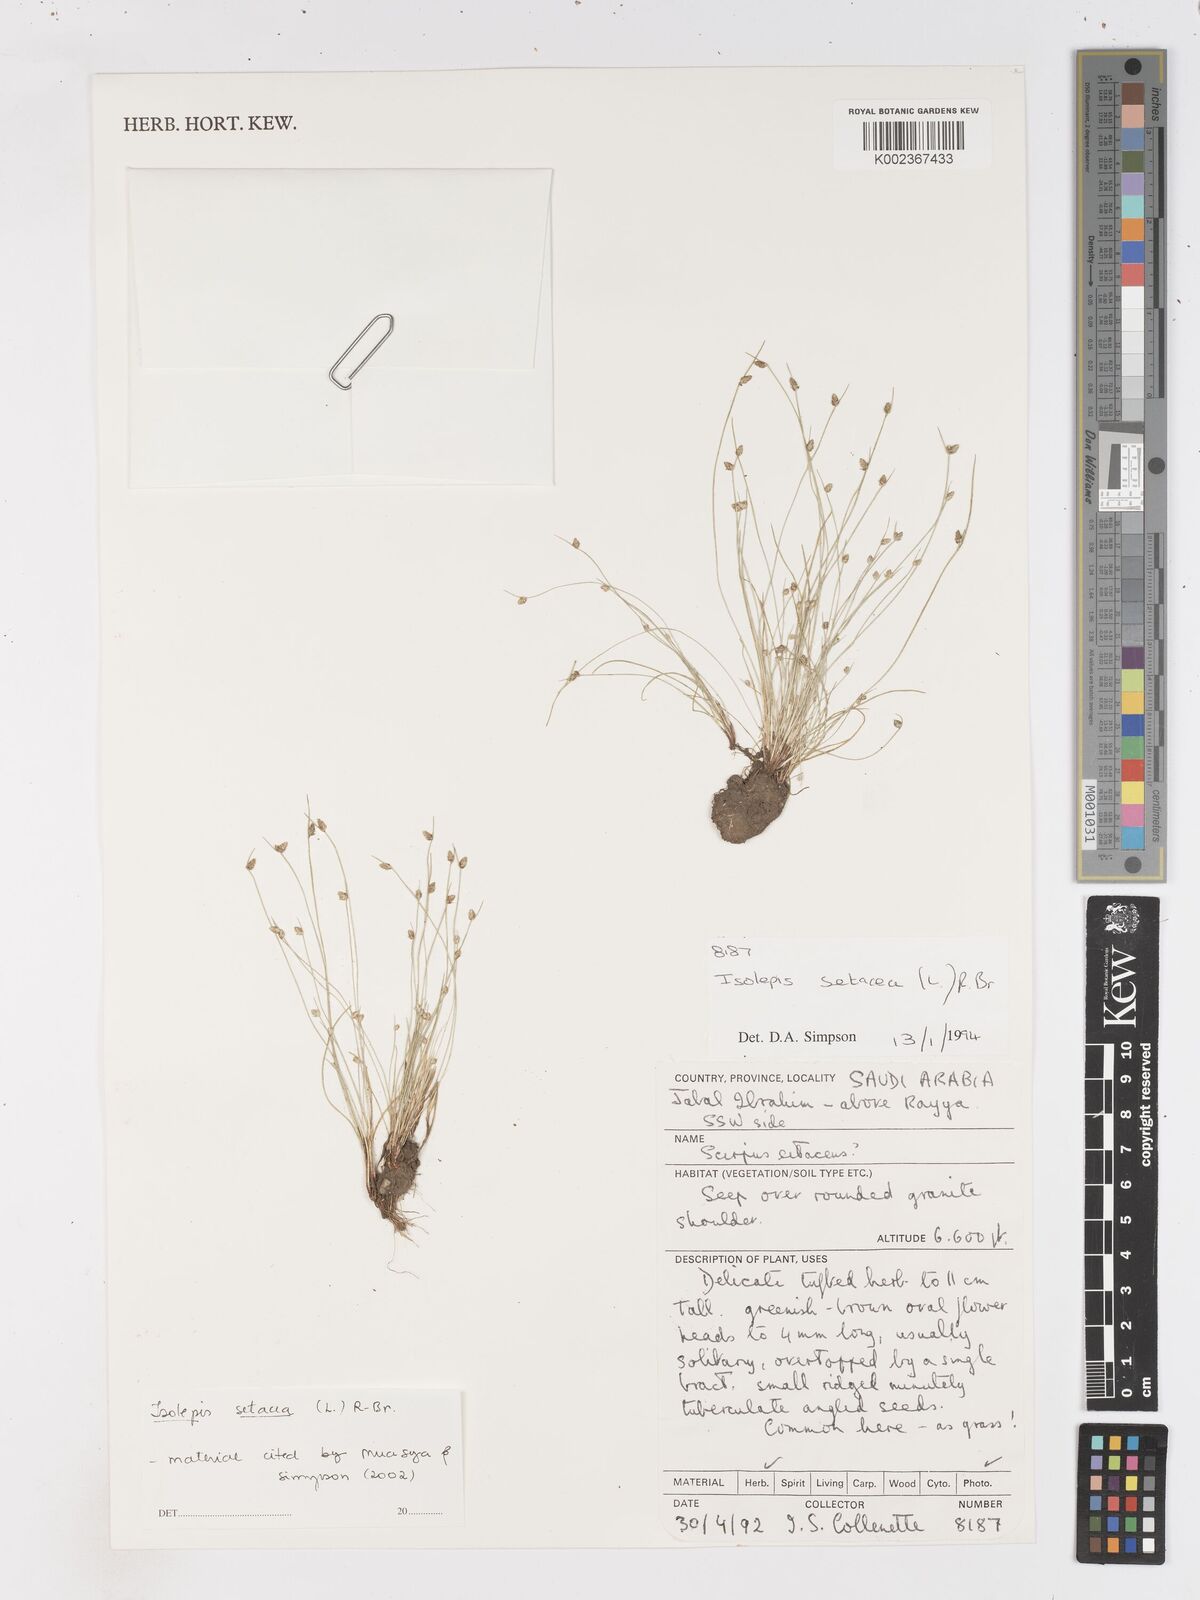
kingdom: Plantae
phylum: Tracheophyta
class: Liliopsida
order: Poales
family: Cyperaceae
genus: Isolepis
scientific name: Isolepis setacea
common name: Bristle club-rush
